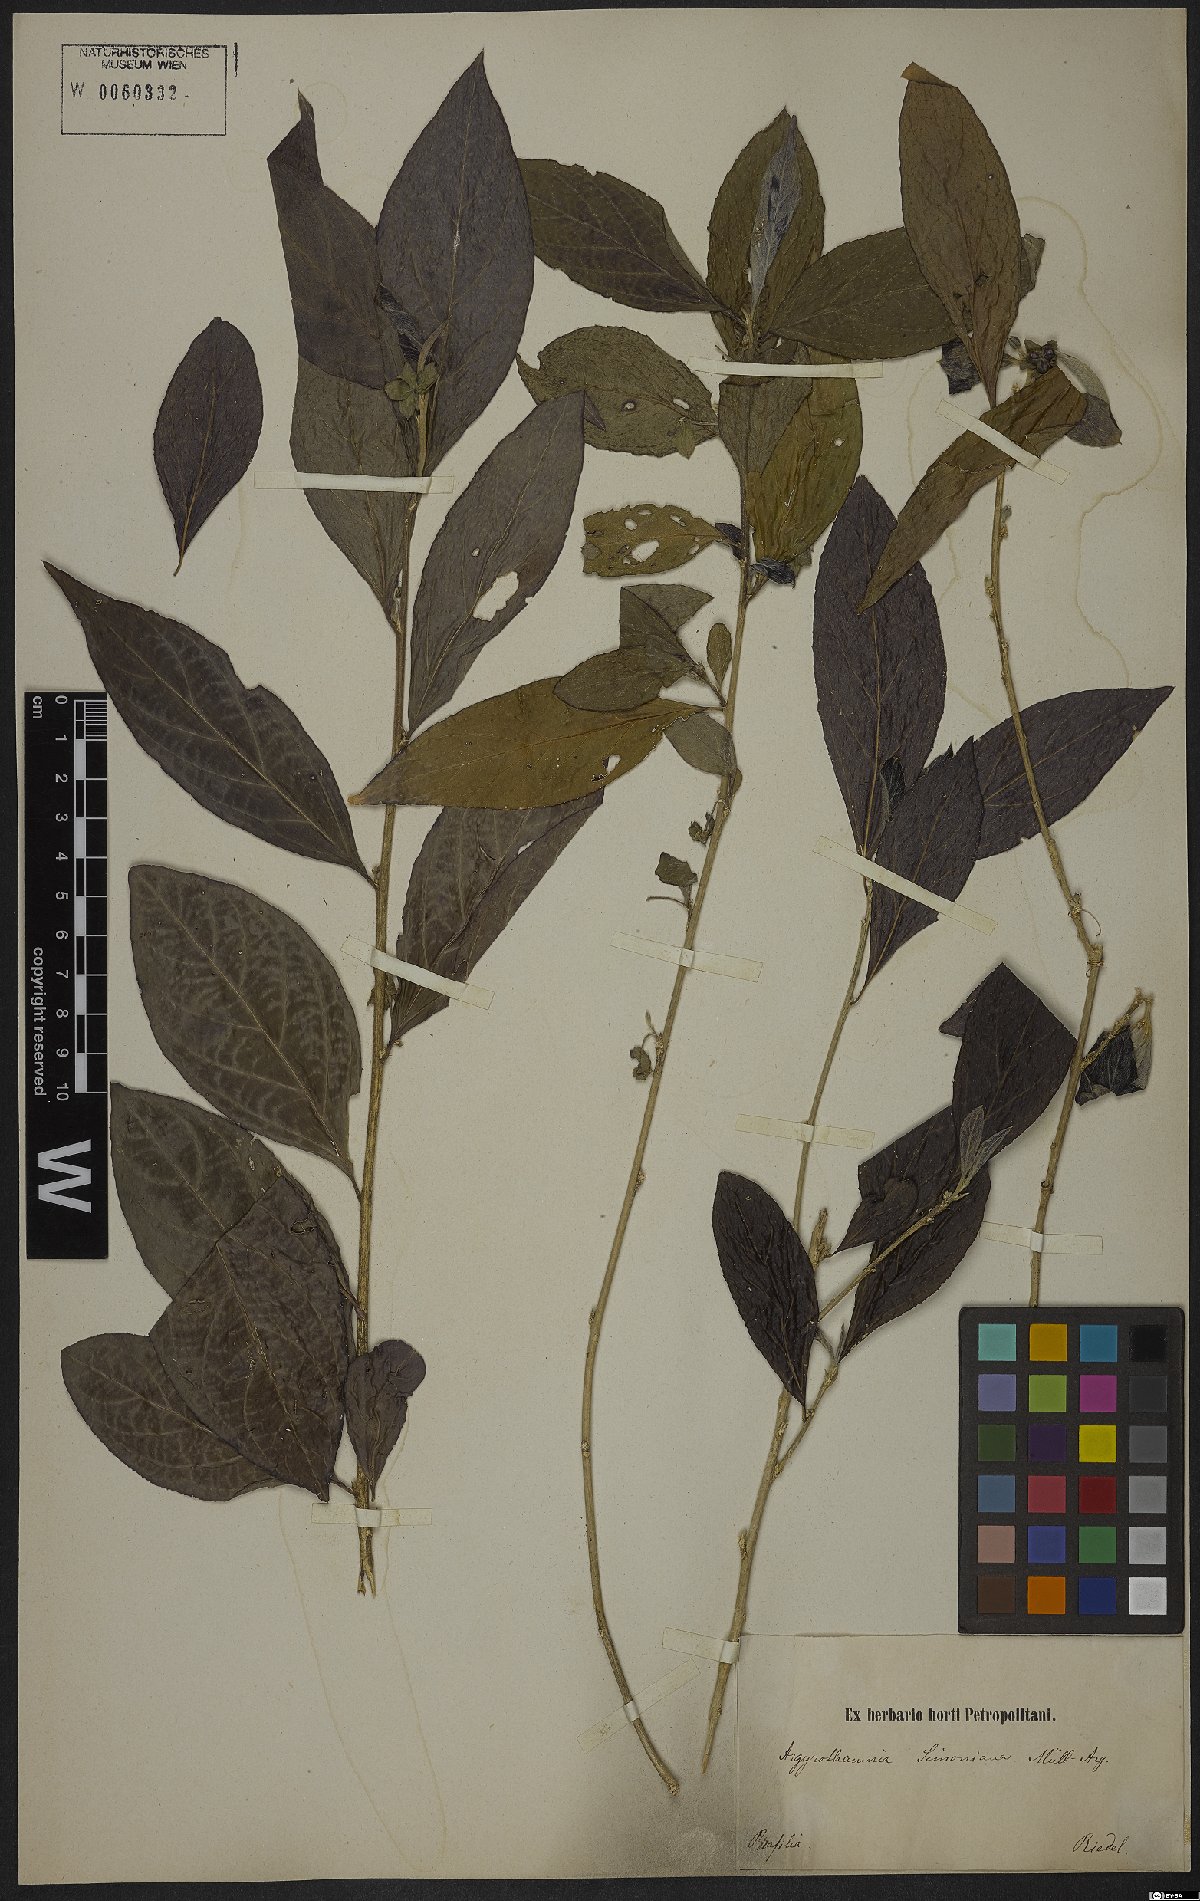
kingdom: Plantae
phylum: Tracheophyta
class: Magnoliopsida
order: Malpighiales
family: Euphorbiaceae
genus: Ditaxis
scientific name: Ditaxis simoniana
